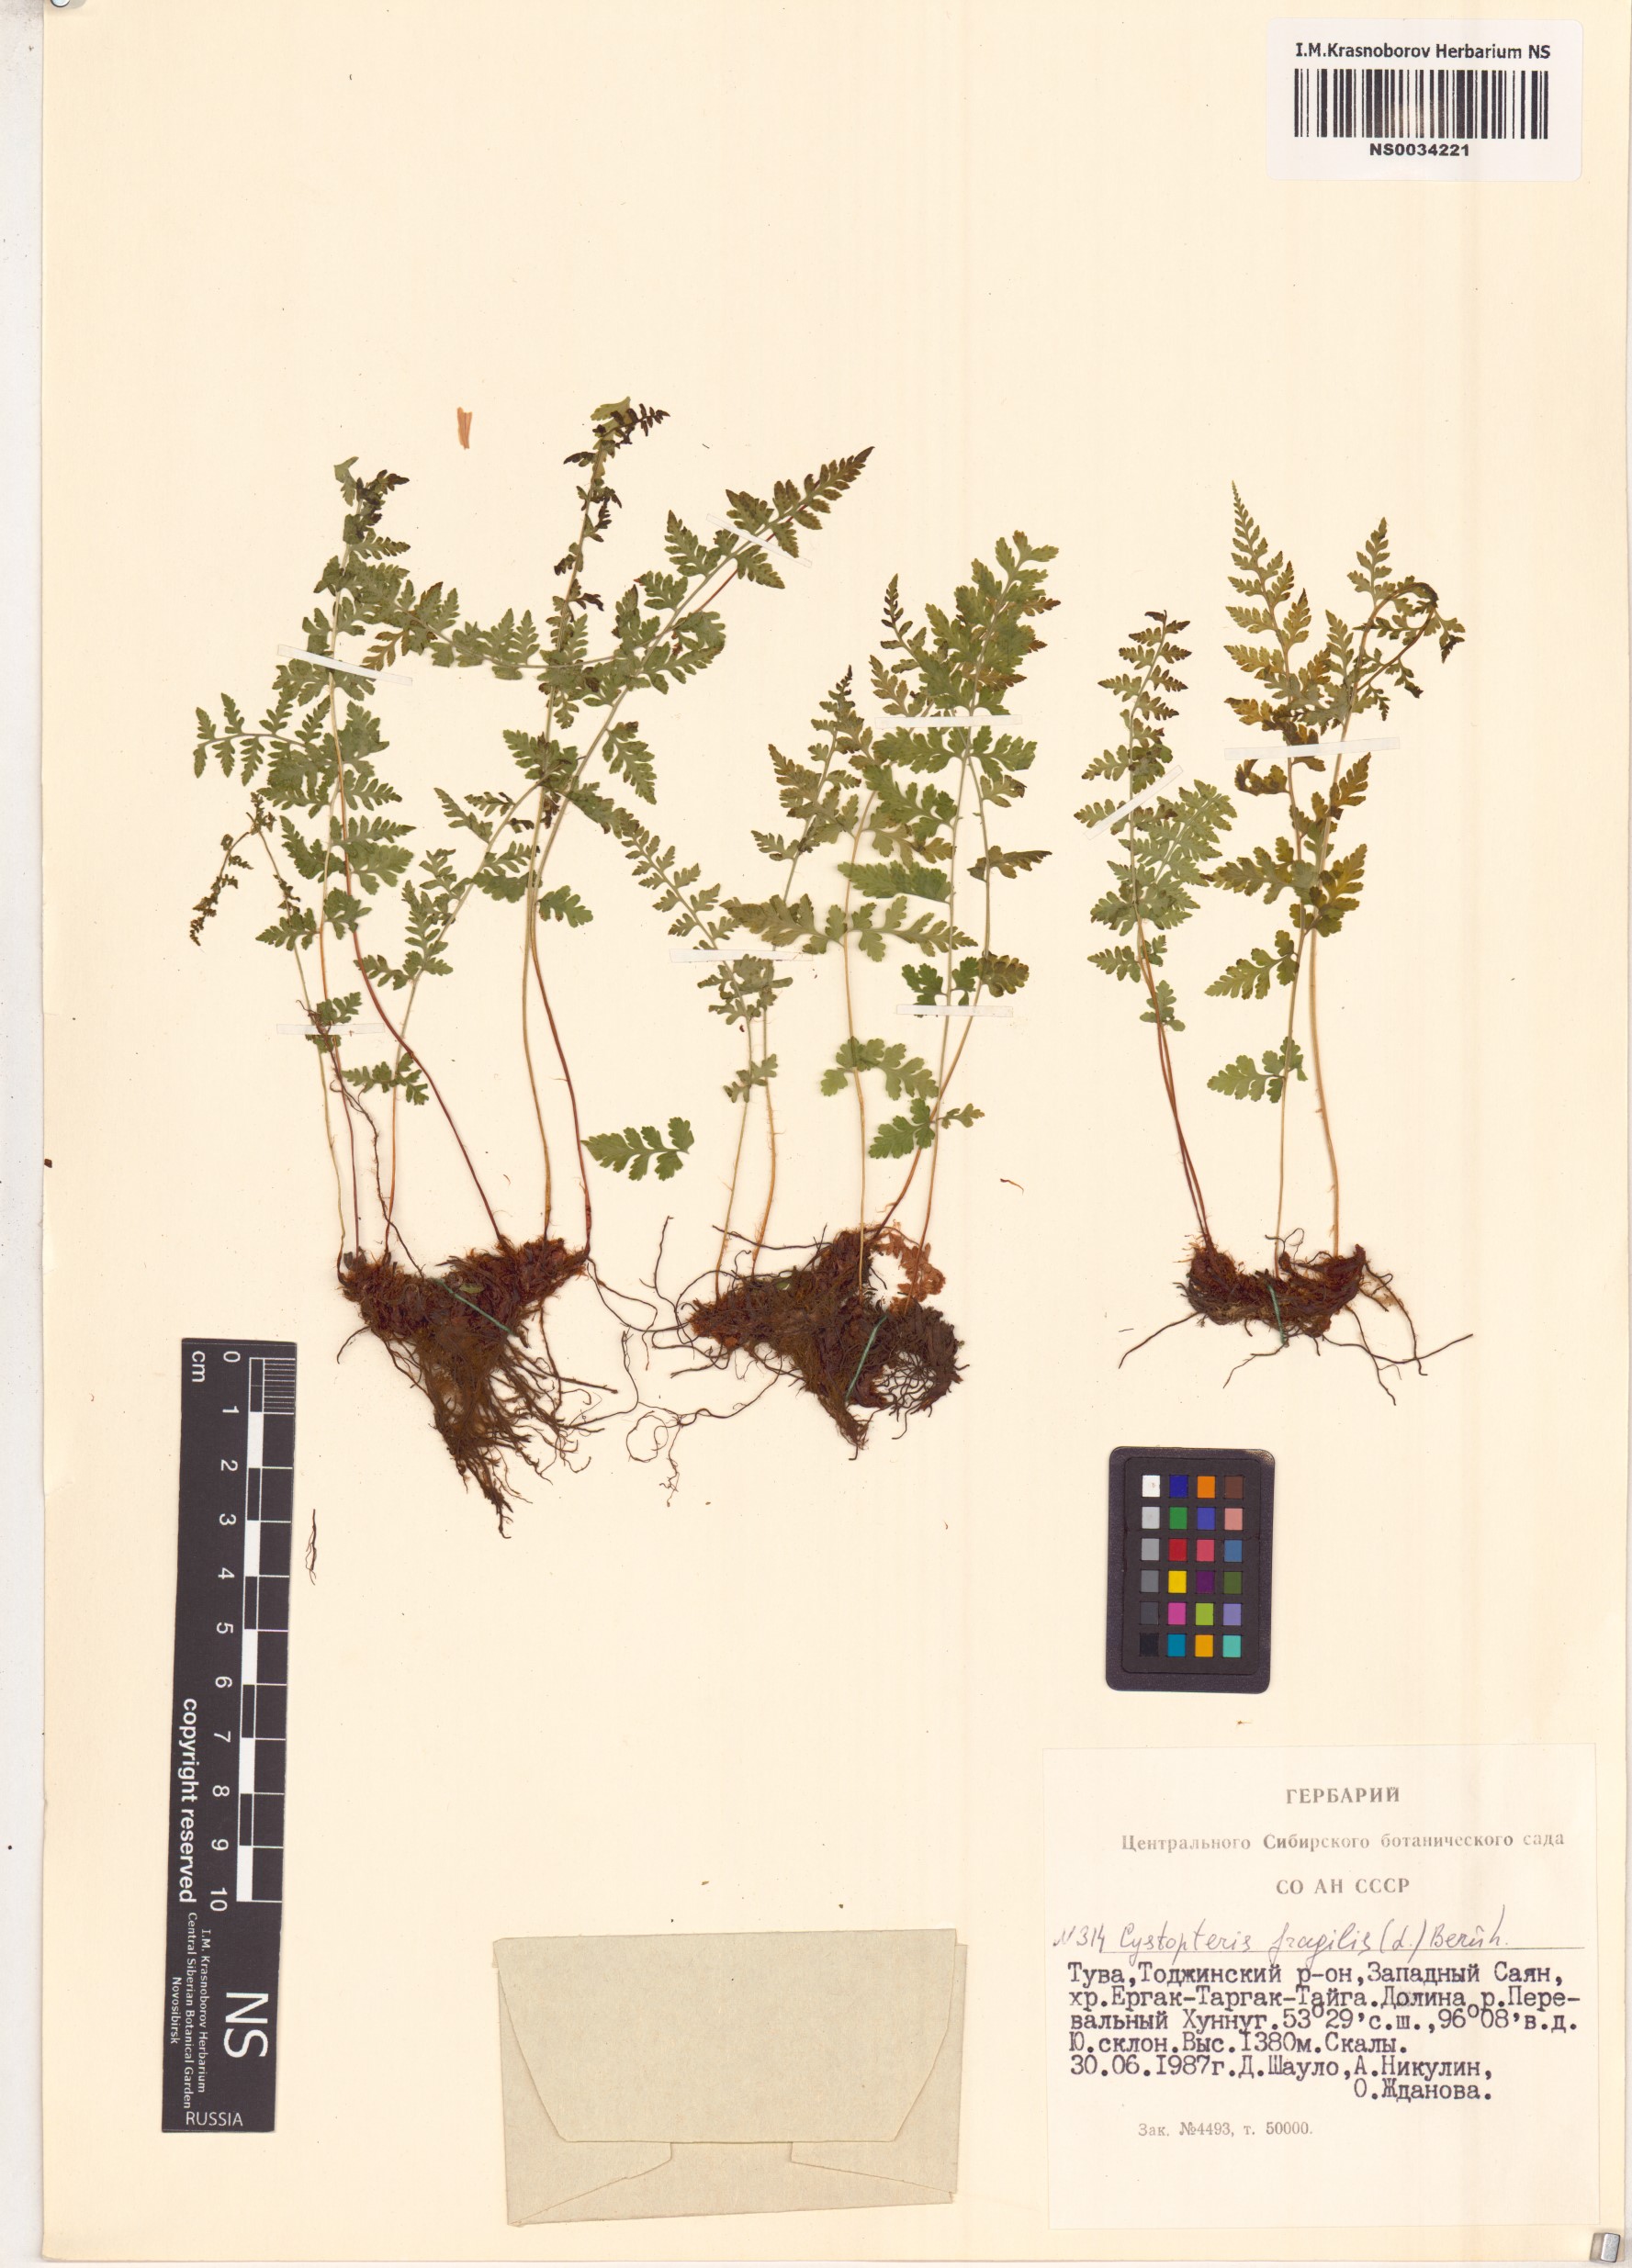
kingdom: Plantae
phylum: Tracheophyta
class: Polypodiopsida
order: Polypodiales
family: Cystopteridaceae
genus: Cystopteris
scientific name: Cystopteris fragilis
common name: Brittle bladder fern
